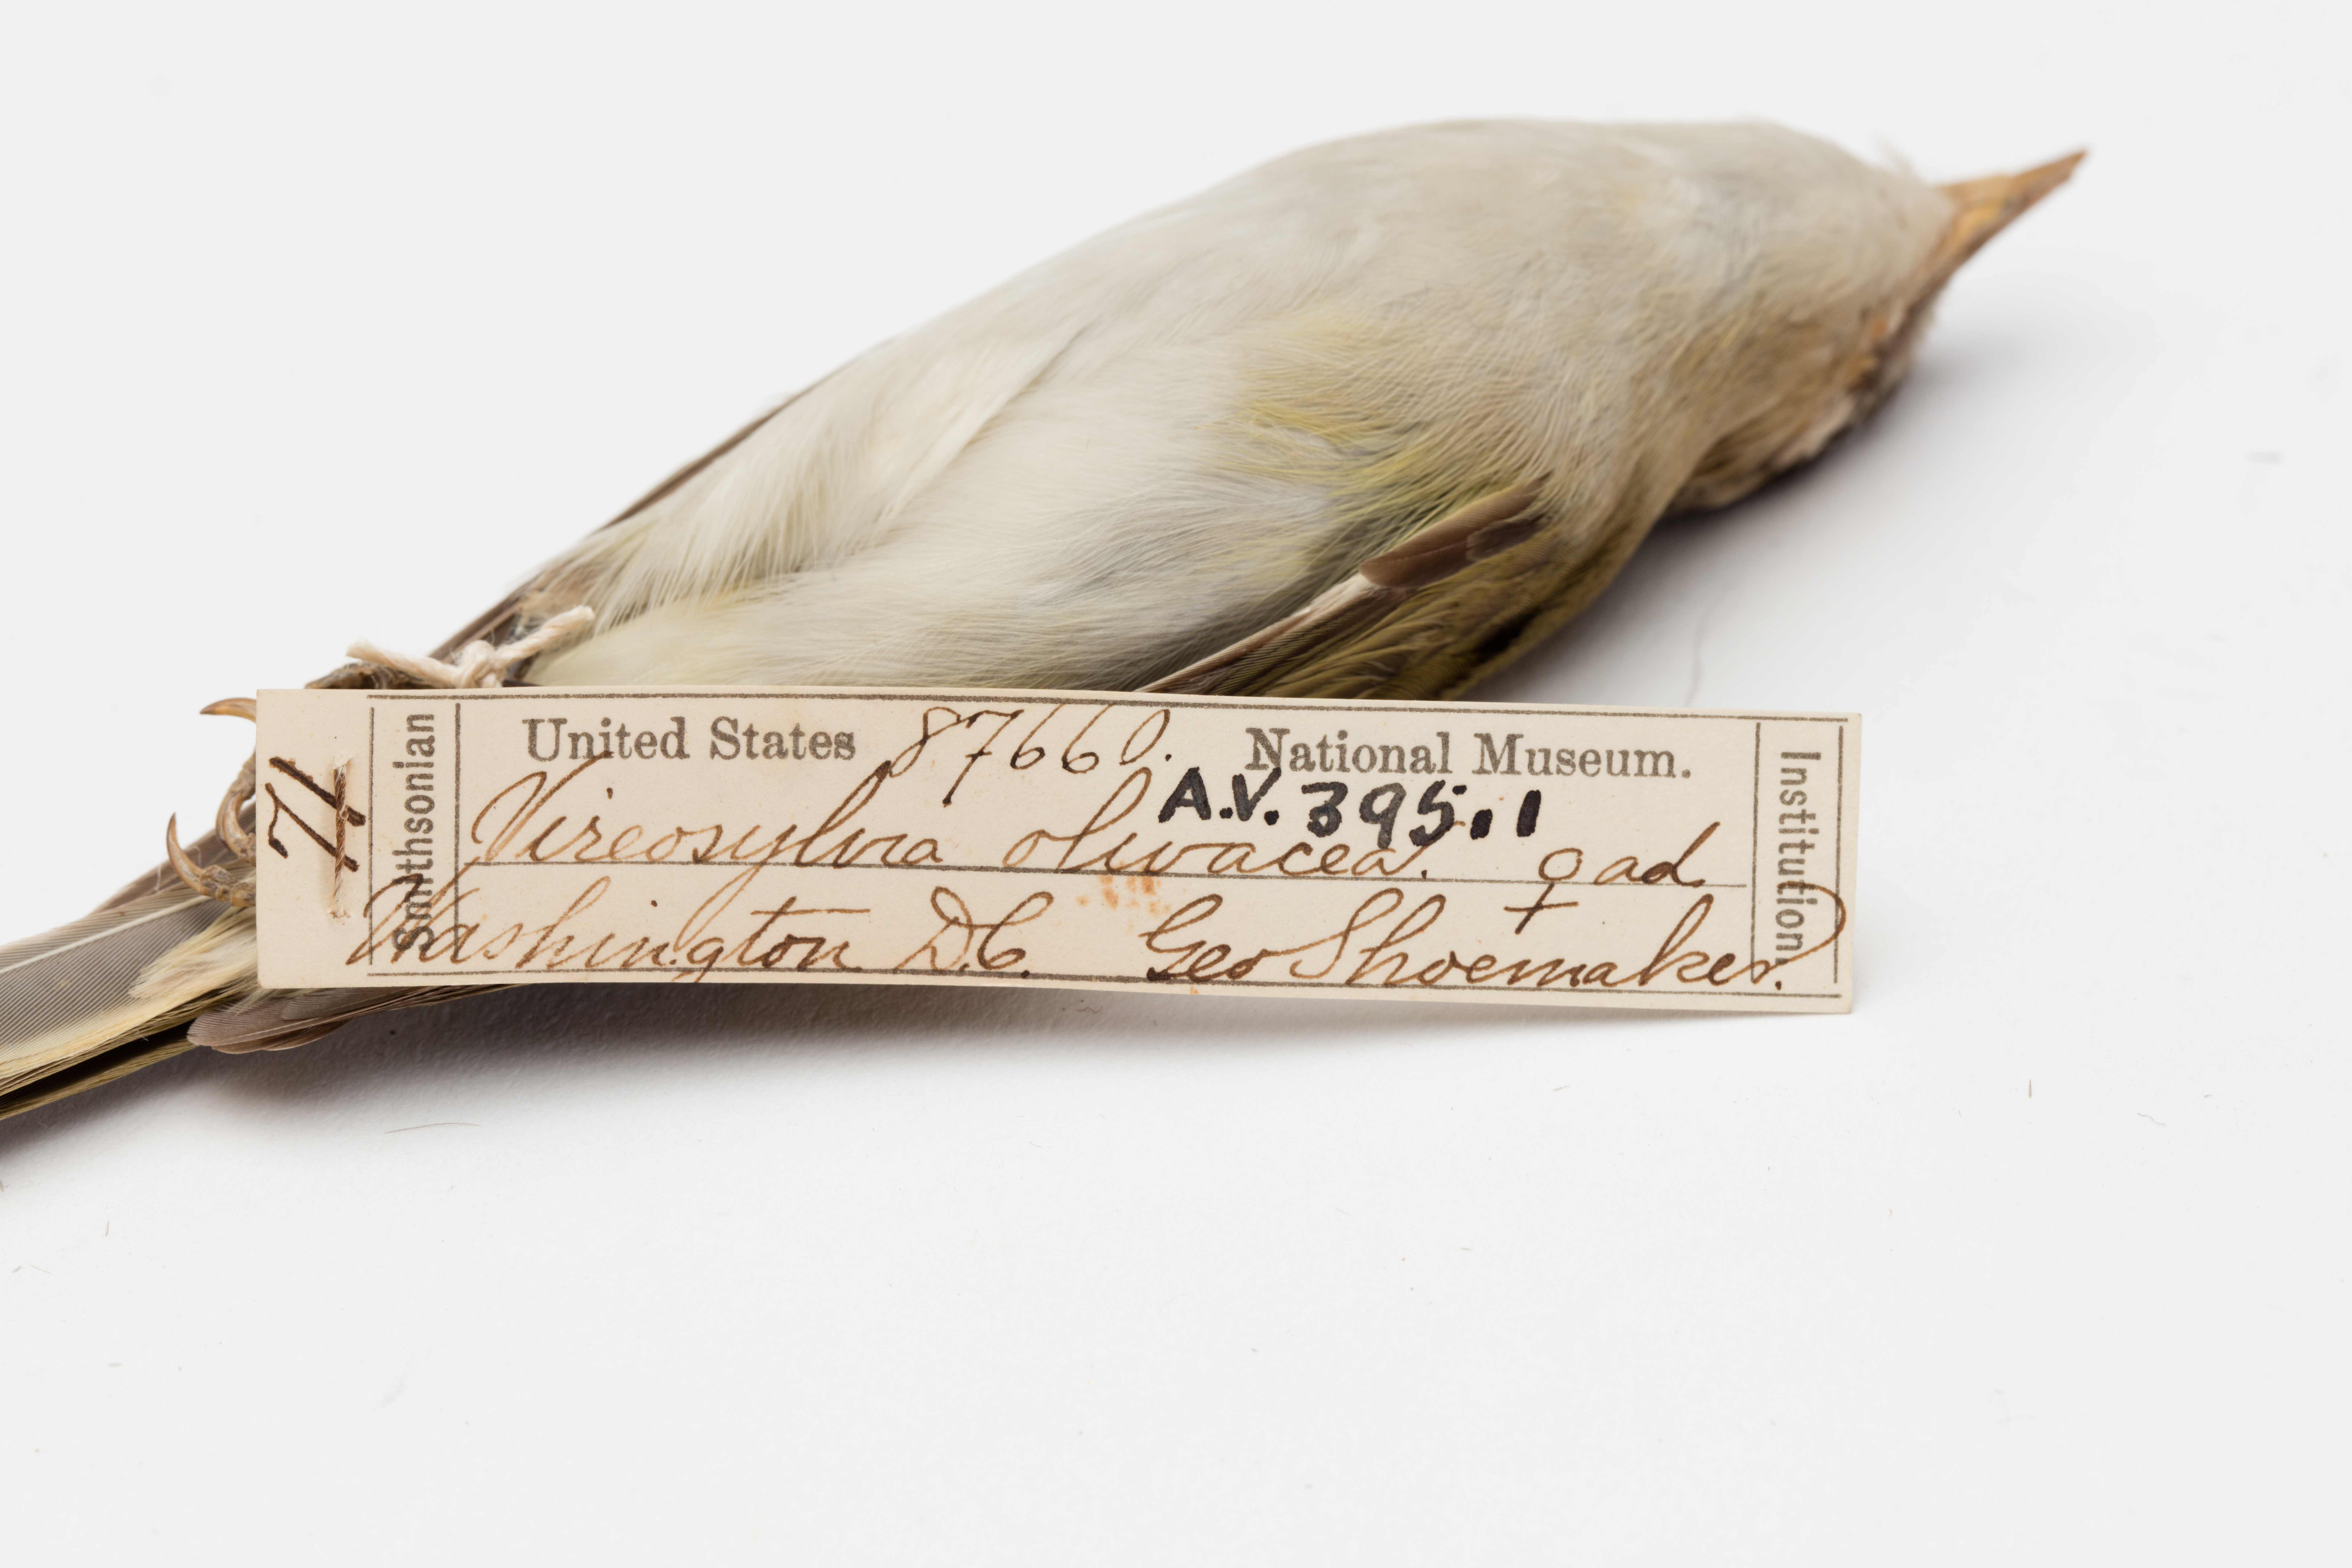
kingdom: Animalia
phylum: Chordata
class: Aves
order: Passeriformes
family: Vireonidae
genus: Vireo
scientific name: Vireo olivaceus
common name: Red-eyed vireo
